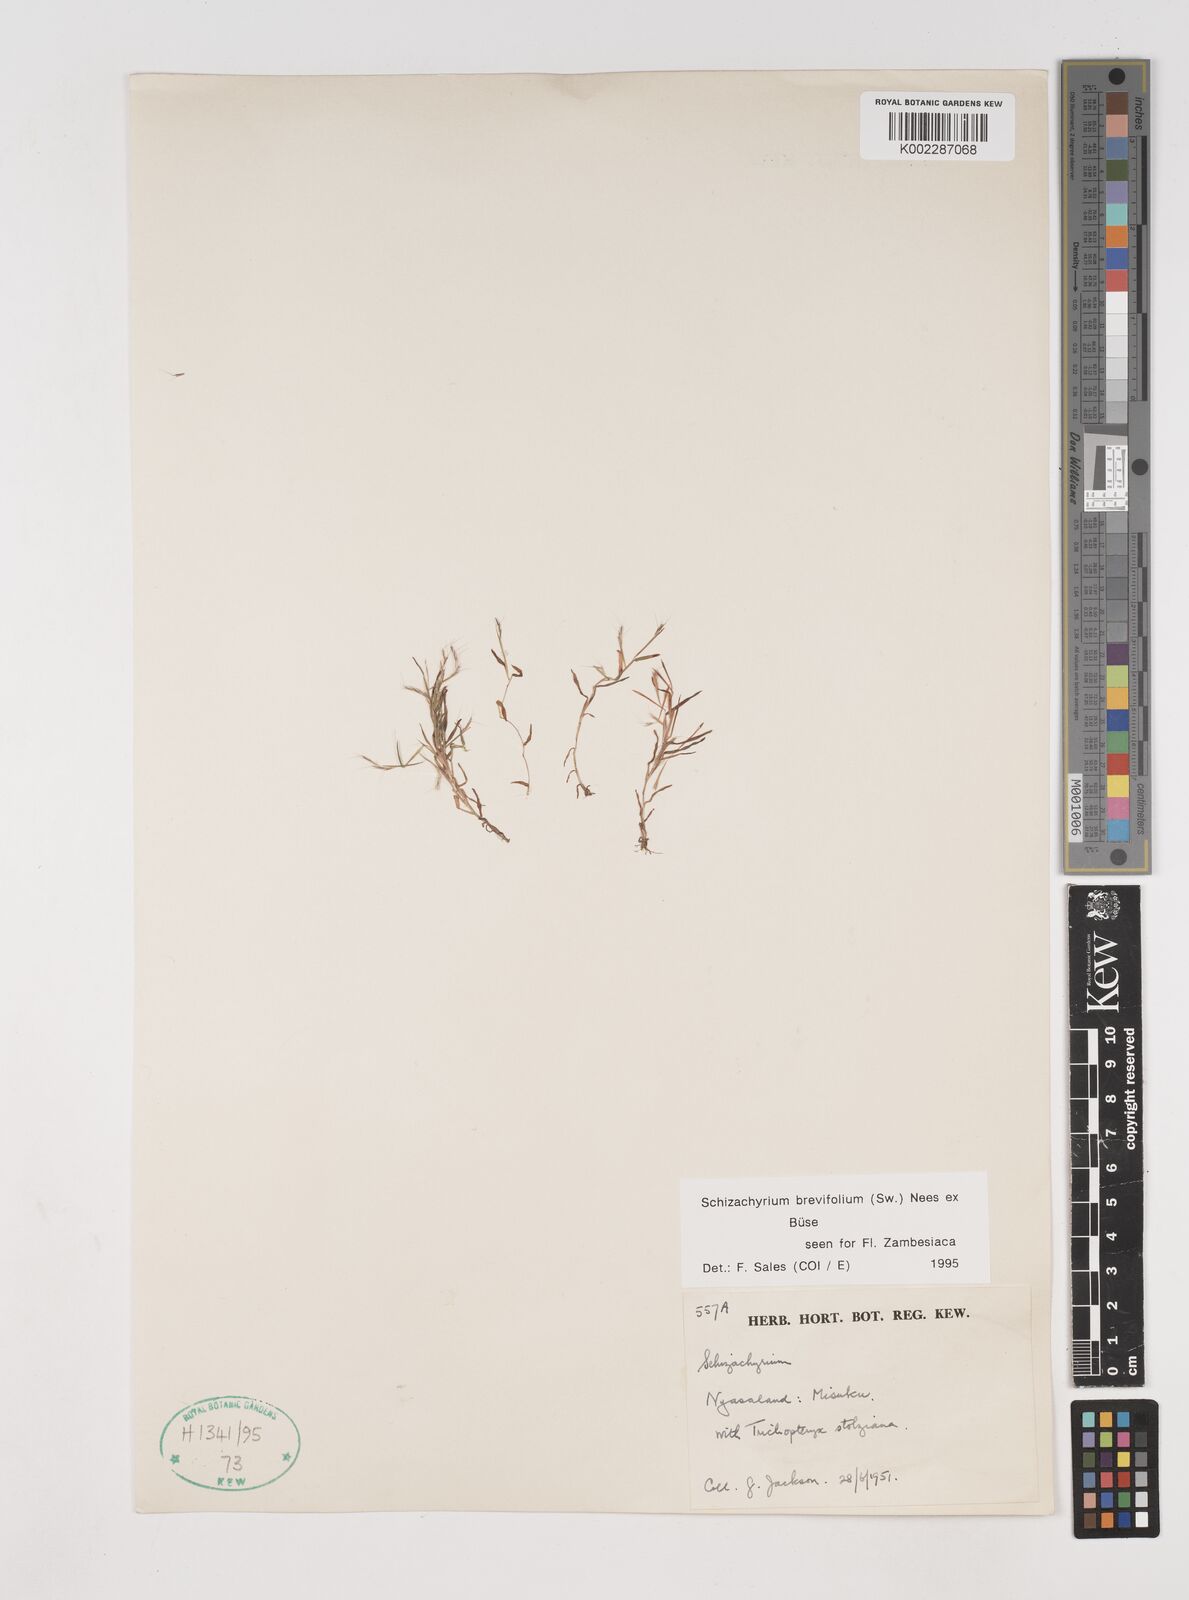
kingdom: Plantae
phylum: Tracheophyta
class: Liliopsida
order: Poales
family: Poaceae
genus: Schizachyrium
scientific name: Schizachyrium brevifolium
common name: Serillo dulce
